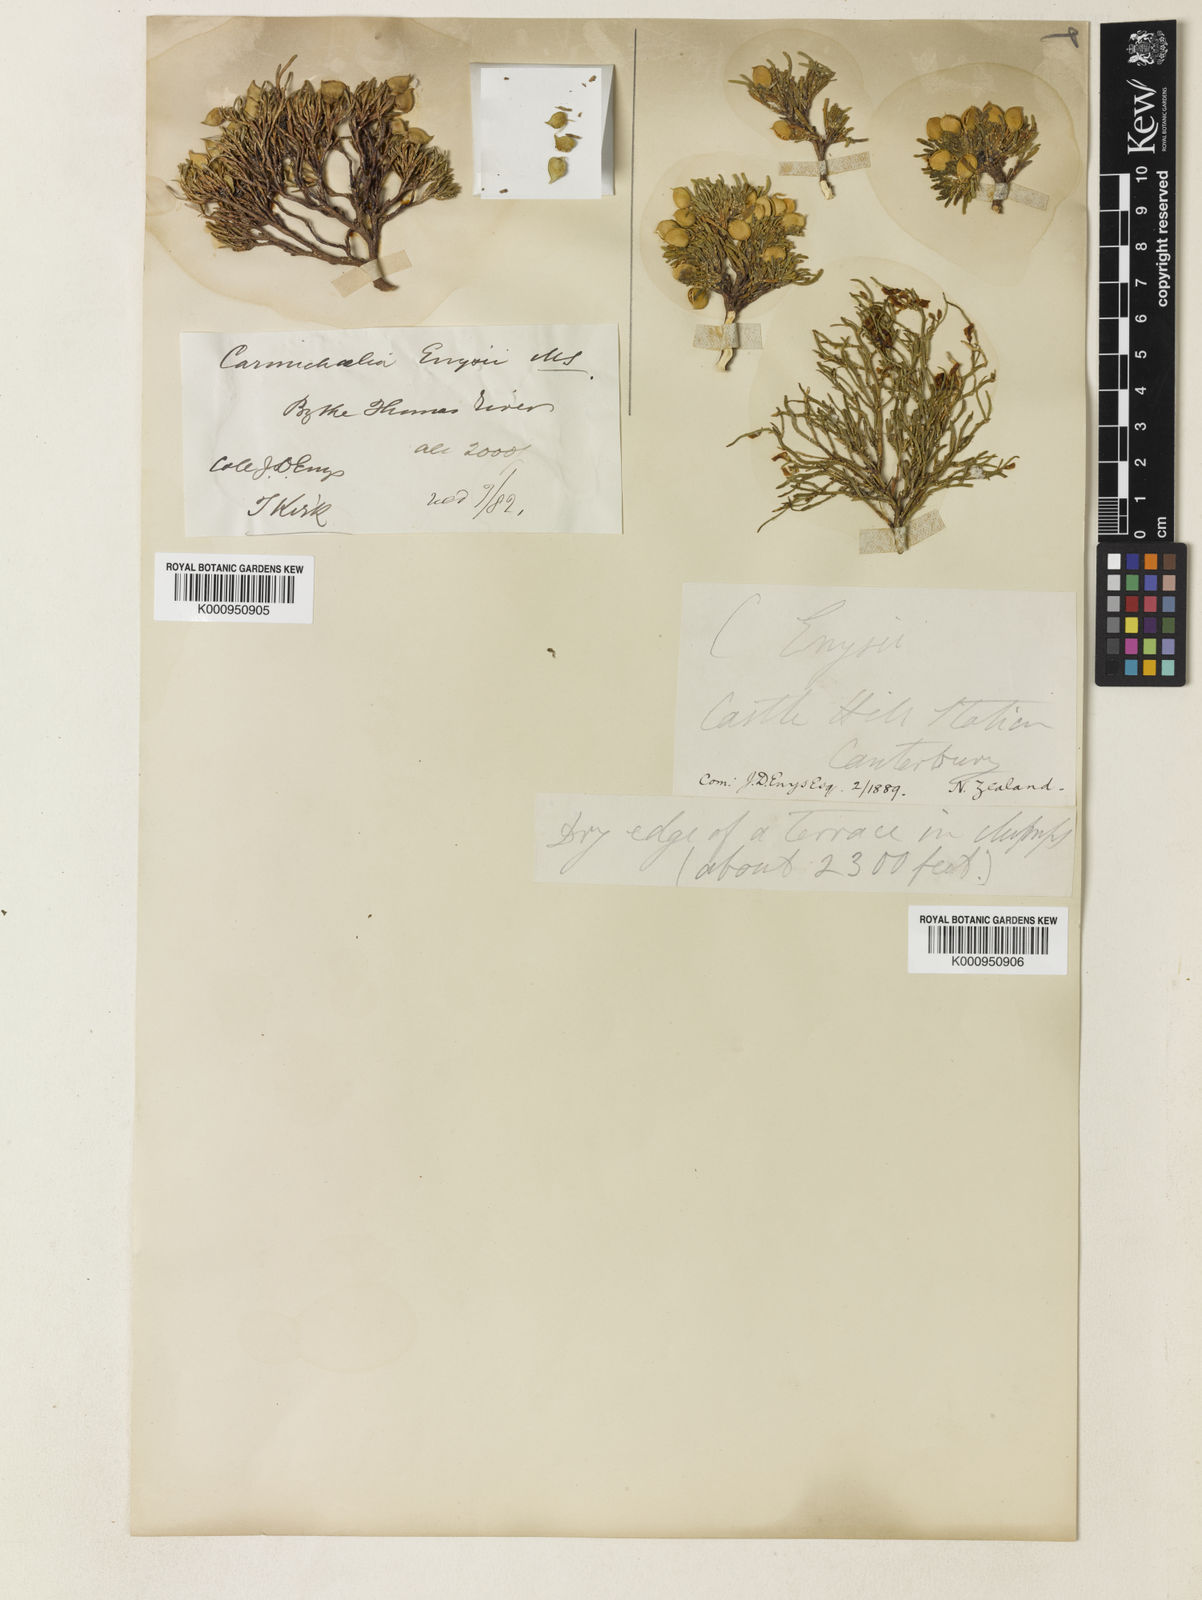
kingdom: Plantae
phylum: Tracheophyta
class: Magnoliopsida
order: Fabales
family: Fabaceae
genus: Carmichaelia
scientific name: Carmichaelia nana
